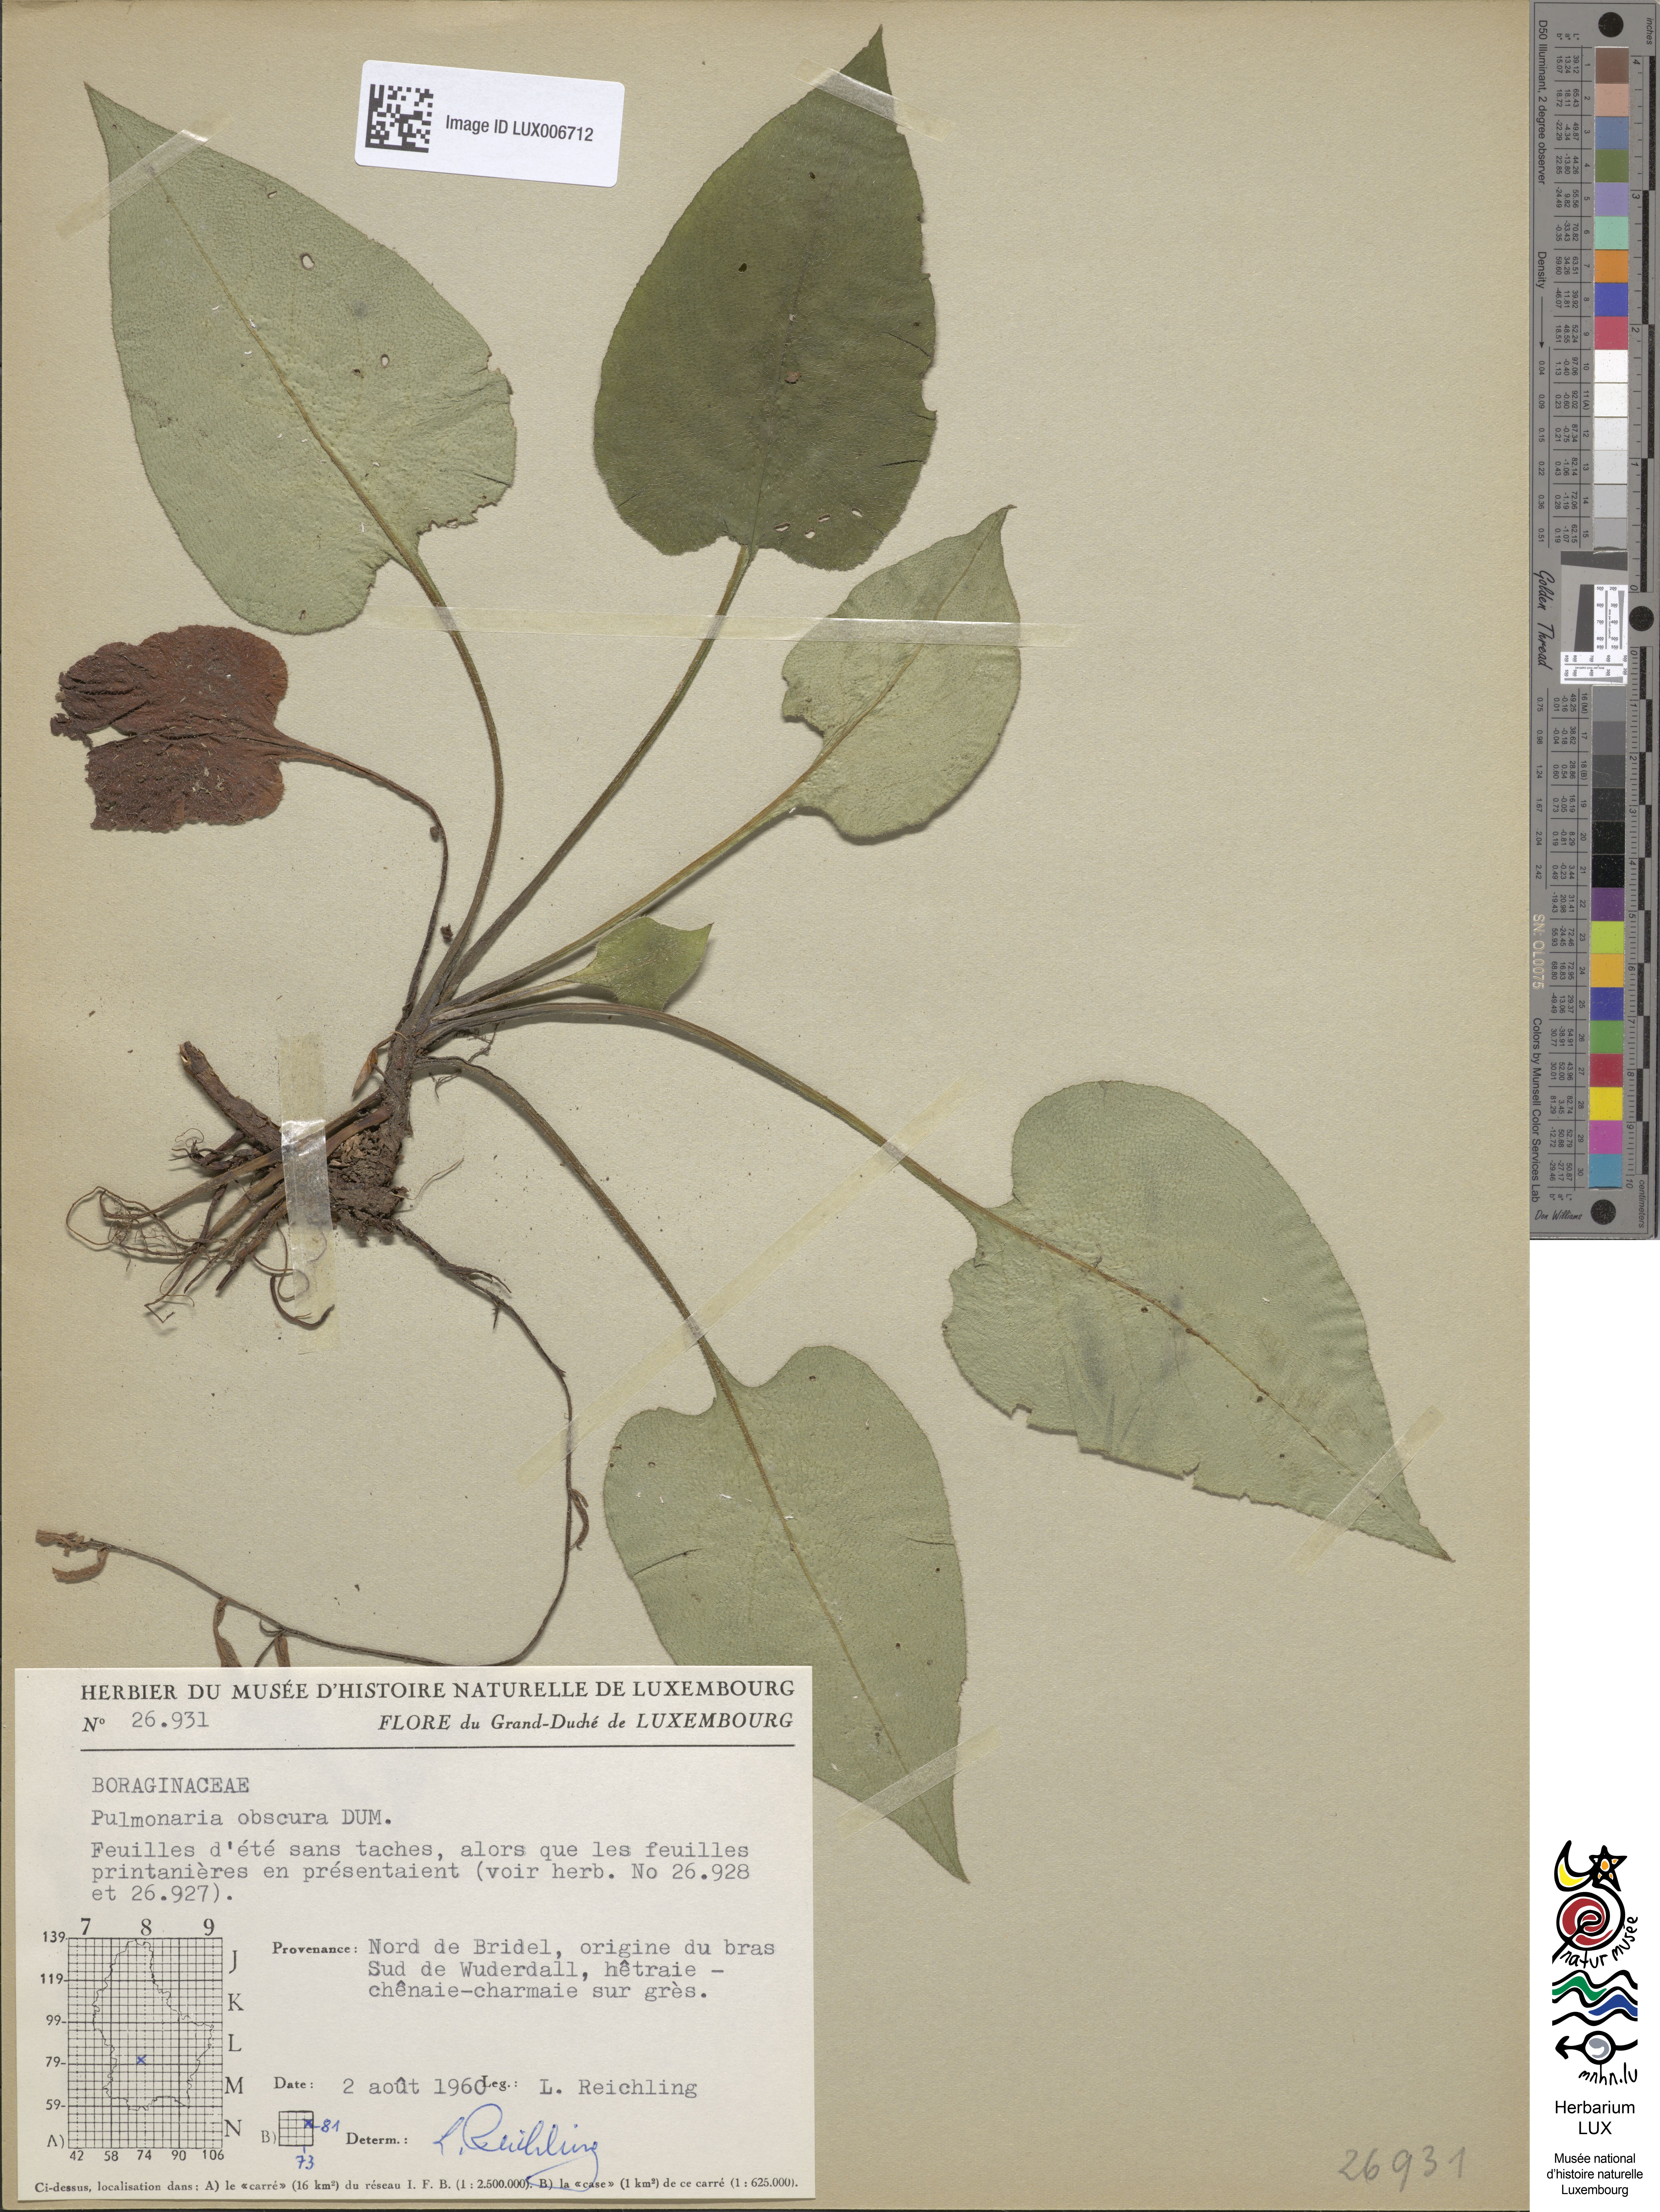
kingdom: Plantae
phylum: Tracheophyta
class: Magnoliopsida
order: Boraginales
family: Boraginaceae
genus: Pulmonaria
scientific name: Pulmonaria obscura
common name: Suffolk lungwort
